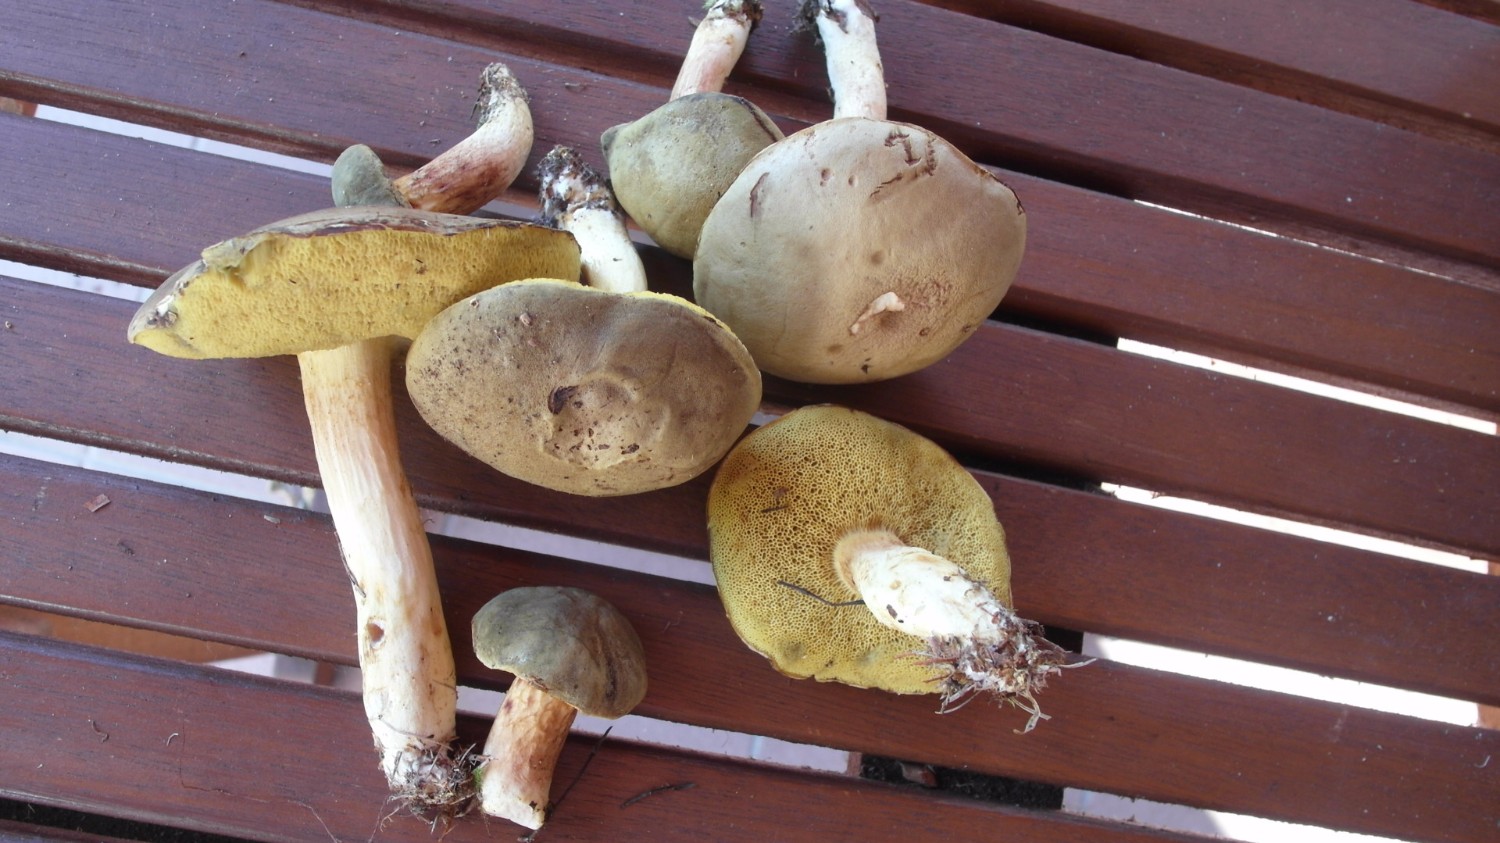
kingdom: Fungi
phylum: Basidiomycota
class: Agaricomycetes
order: Boletales
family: Boletaceae
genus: Xerocomus
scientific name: Xerocomus subtomentosus
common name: filtet rørhat
